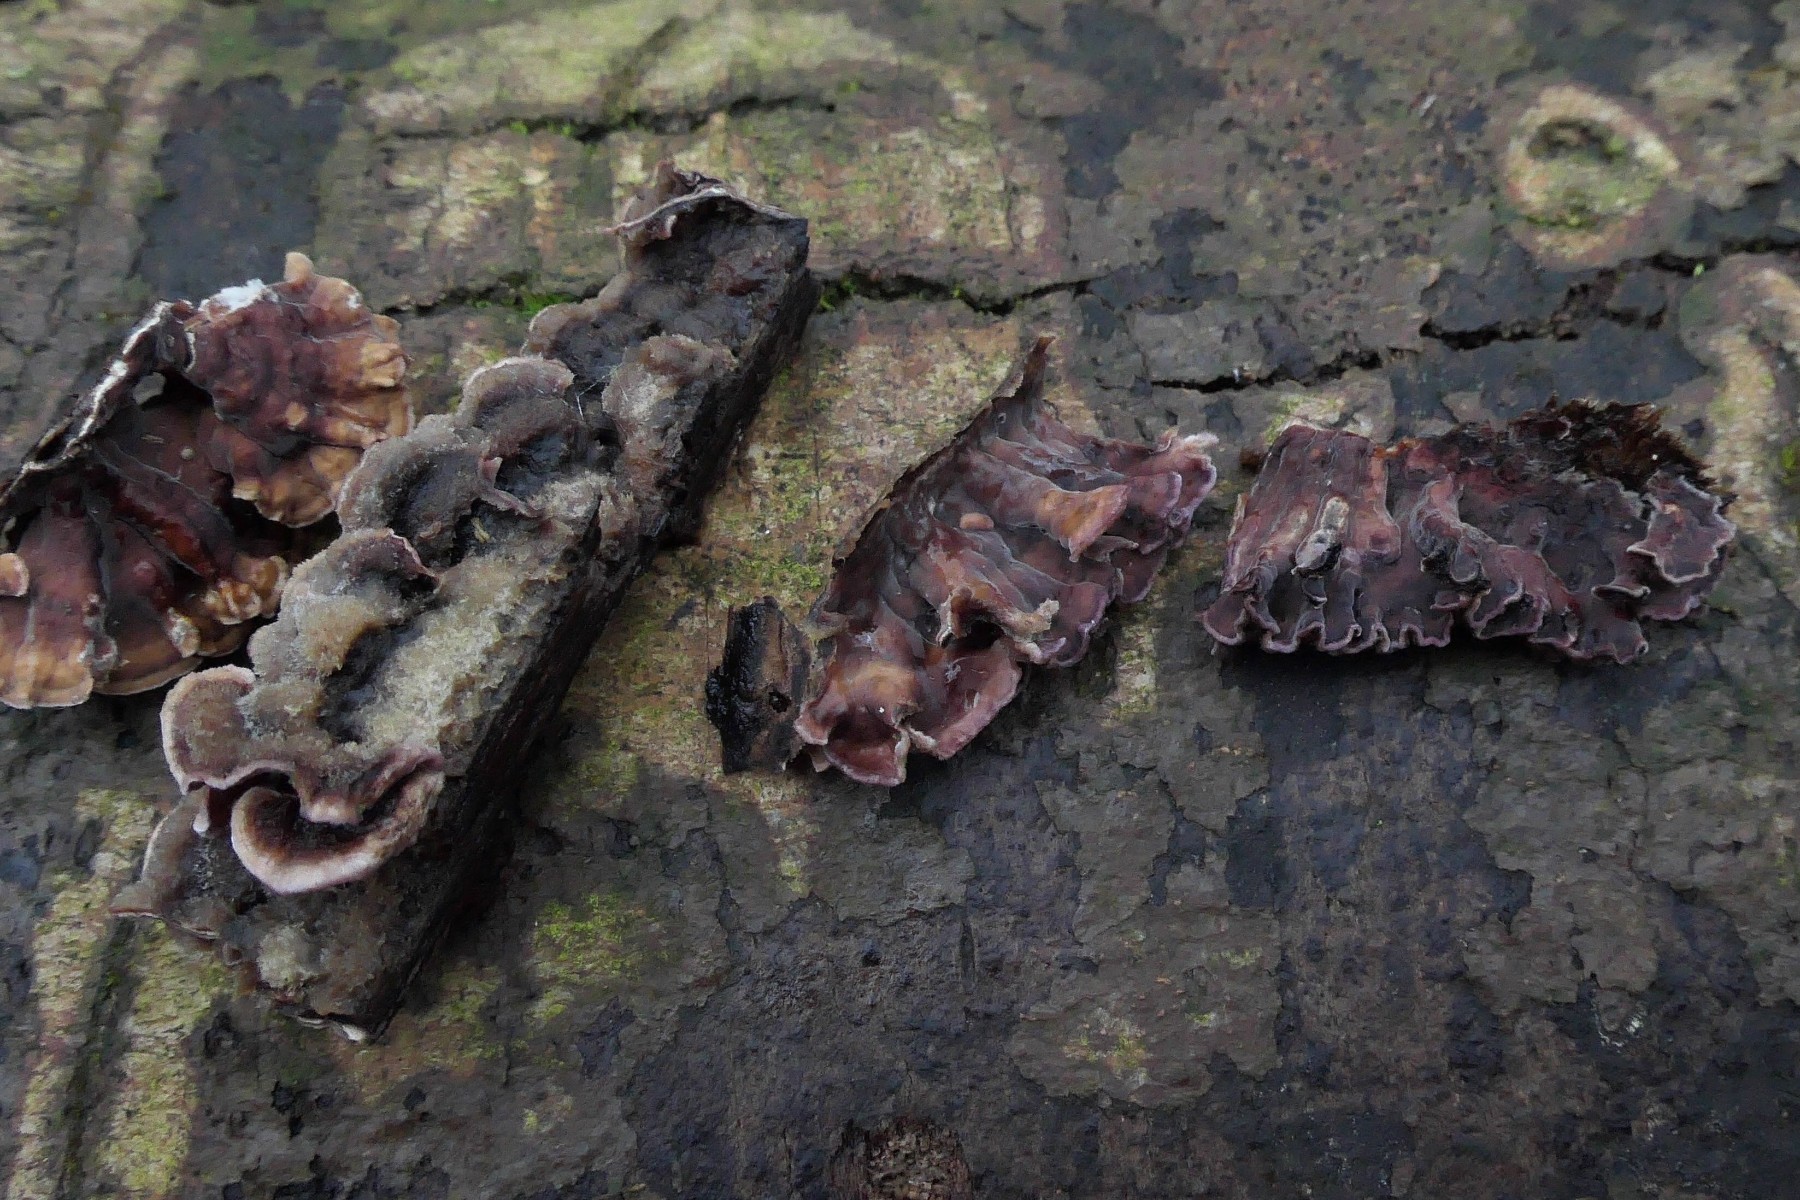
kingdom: Fungi
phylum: Basidiomycota
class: Agaricomycetes
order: Agaricales
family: Cyphellaceae
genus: Chondrostereum
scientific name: Chondrostereum purpureum
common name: purpurlædersvamp
